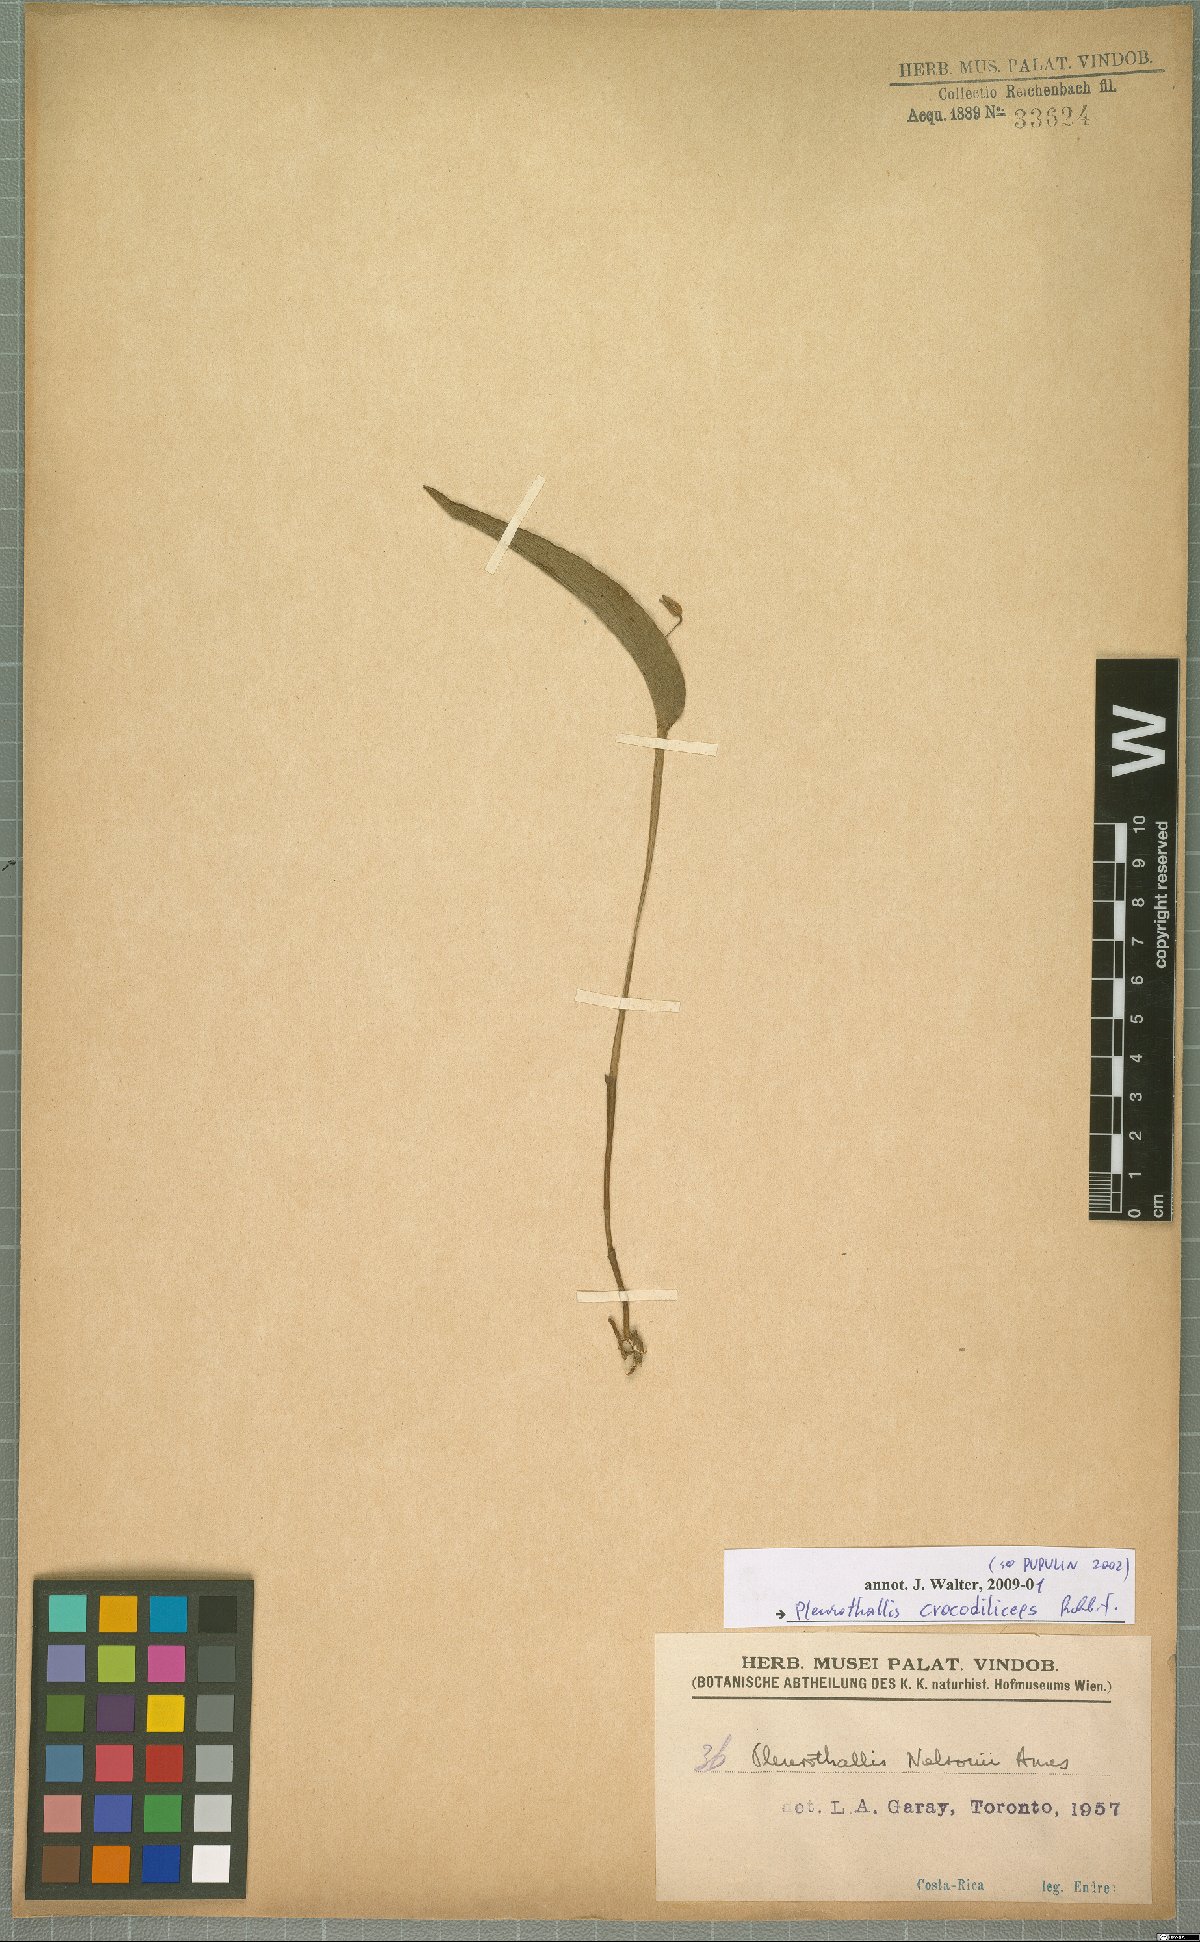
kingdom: Plantae
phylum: Tracheophyta
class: Liliopsida
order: Asparagales
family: Orchidaceae
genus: Pleurothallis
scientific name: Pleurothallis crocodiliceps
